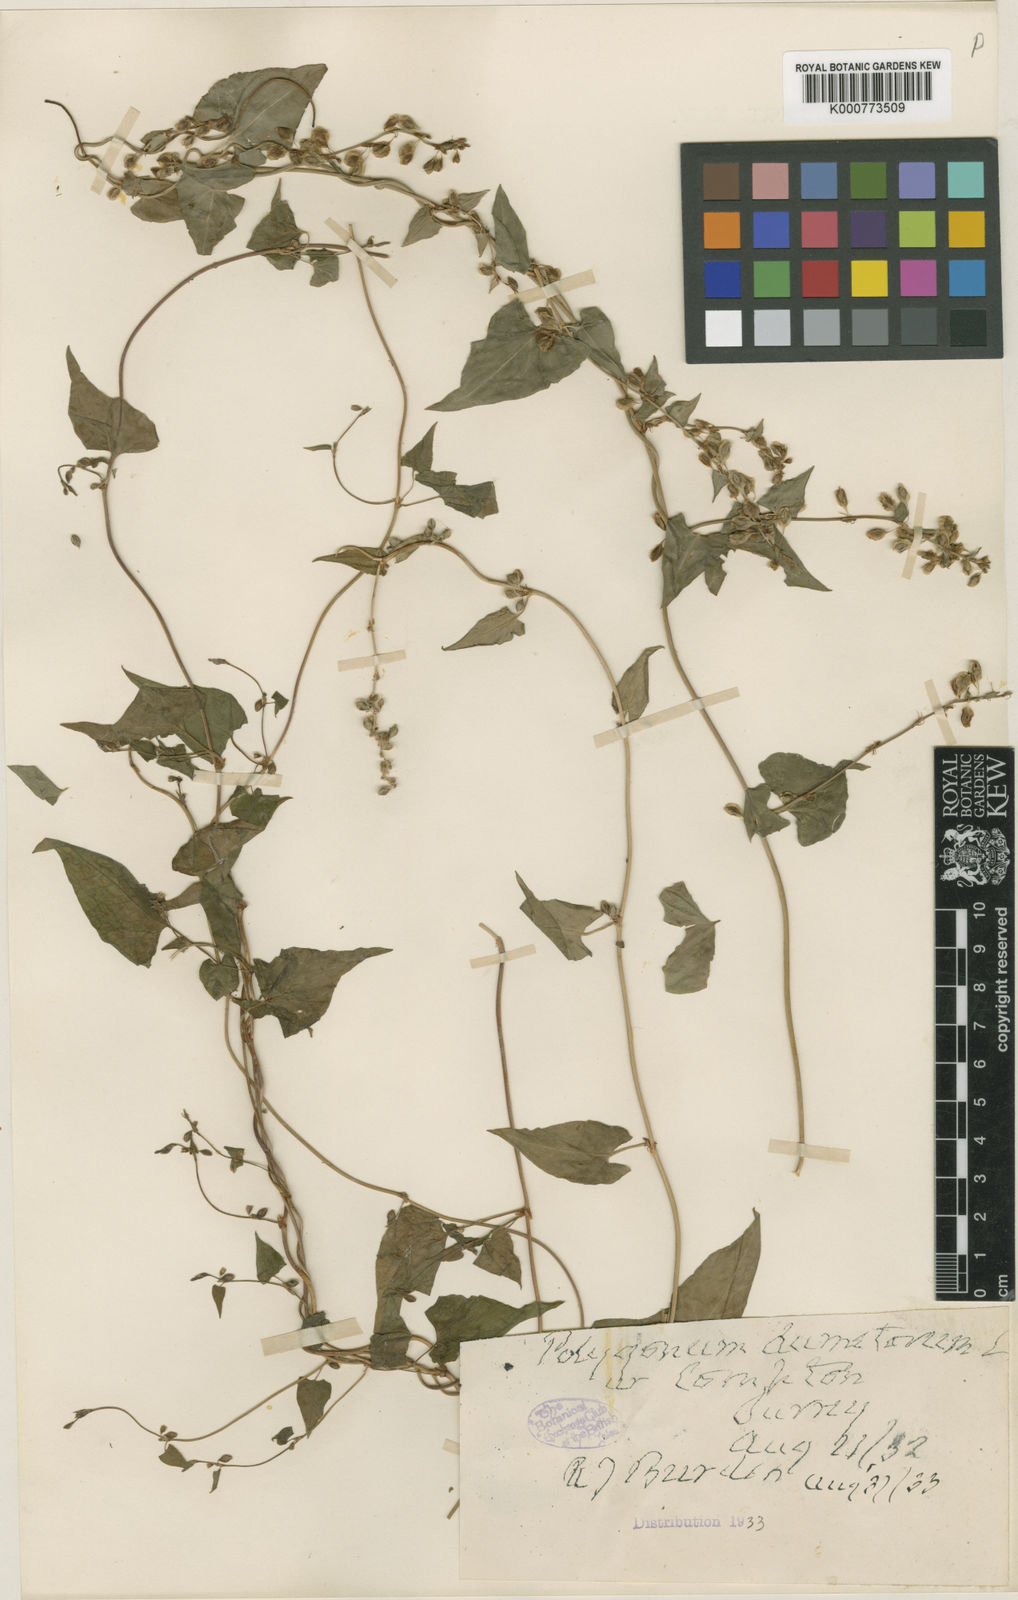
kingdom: Plantae
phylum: Tracheophyta
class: Magnoliopsida
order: Caryophyllales
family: Polygonaceae
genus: Fallopia
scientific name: Fallopia dumetorum
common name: Copse-bindweed
